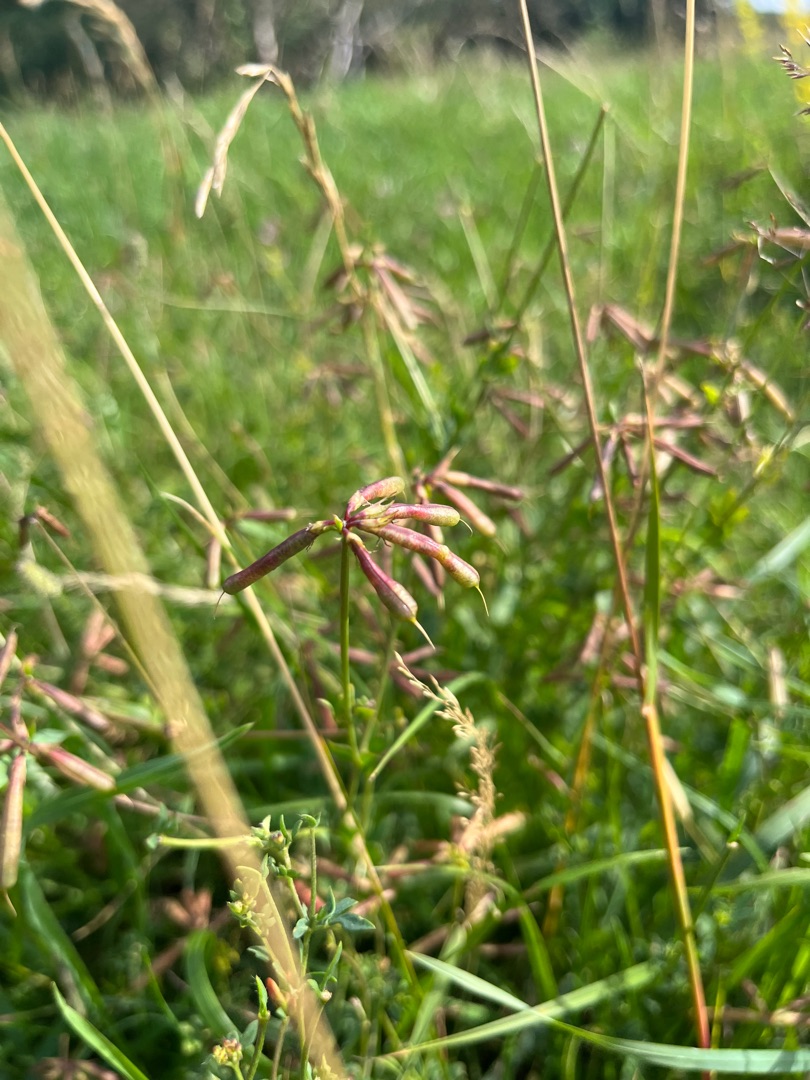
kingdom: Plantae
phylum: Tracheophyta
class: Magnoliopsida
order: Fabales
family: Fabaceae
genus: Lotus
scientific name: Lotus corniculatus
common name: Almindelig kællingetand
